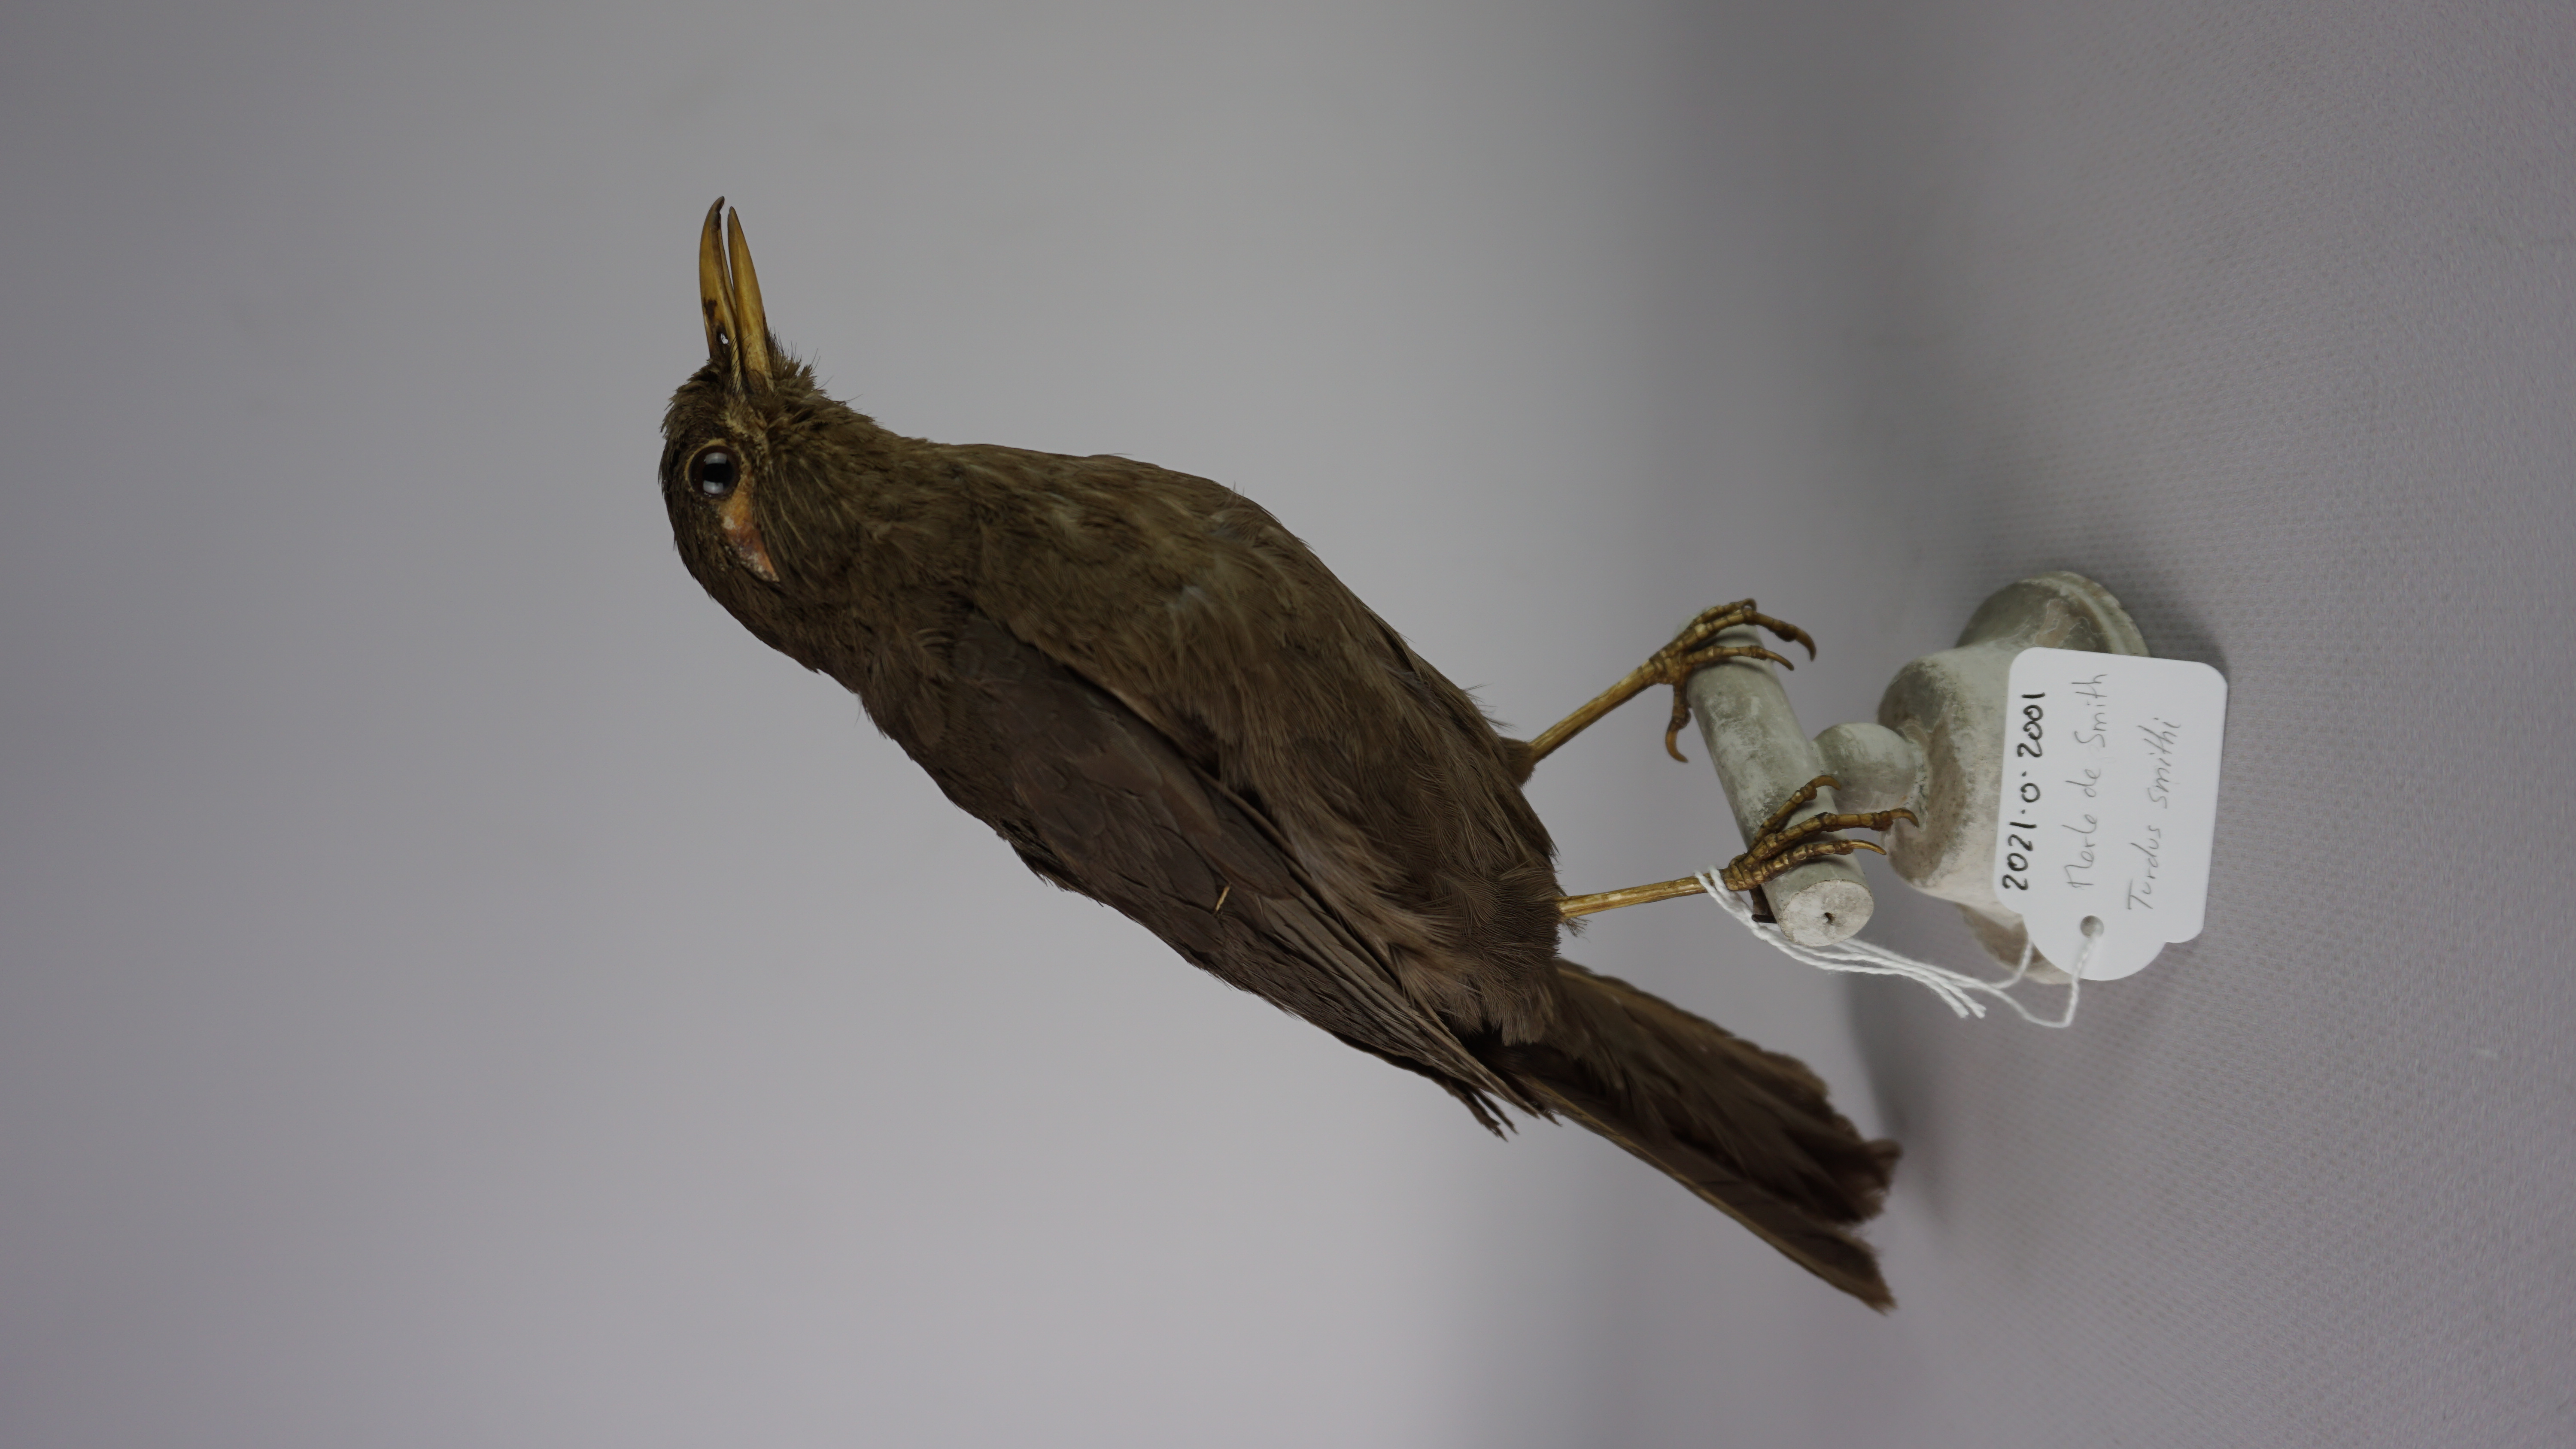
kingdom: Animalia
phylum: Chordata
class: Aves
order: Passeriformes
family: Turdidae
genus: Turdus
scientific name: Turdus smithi
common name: Karoo thrush
